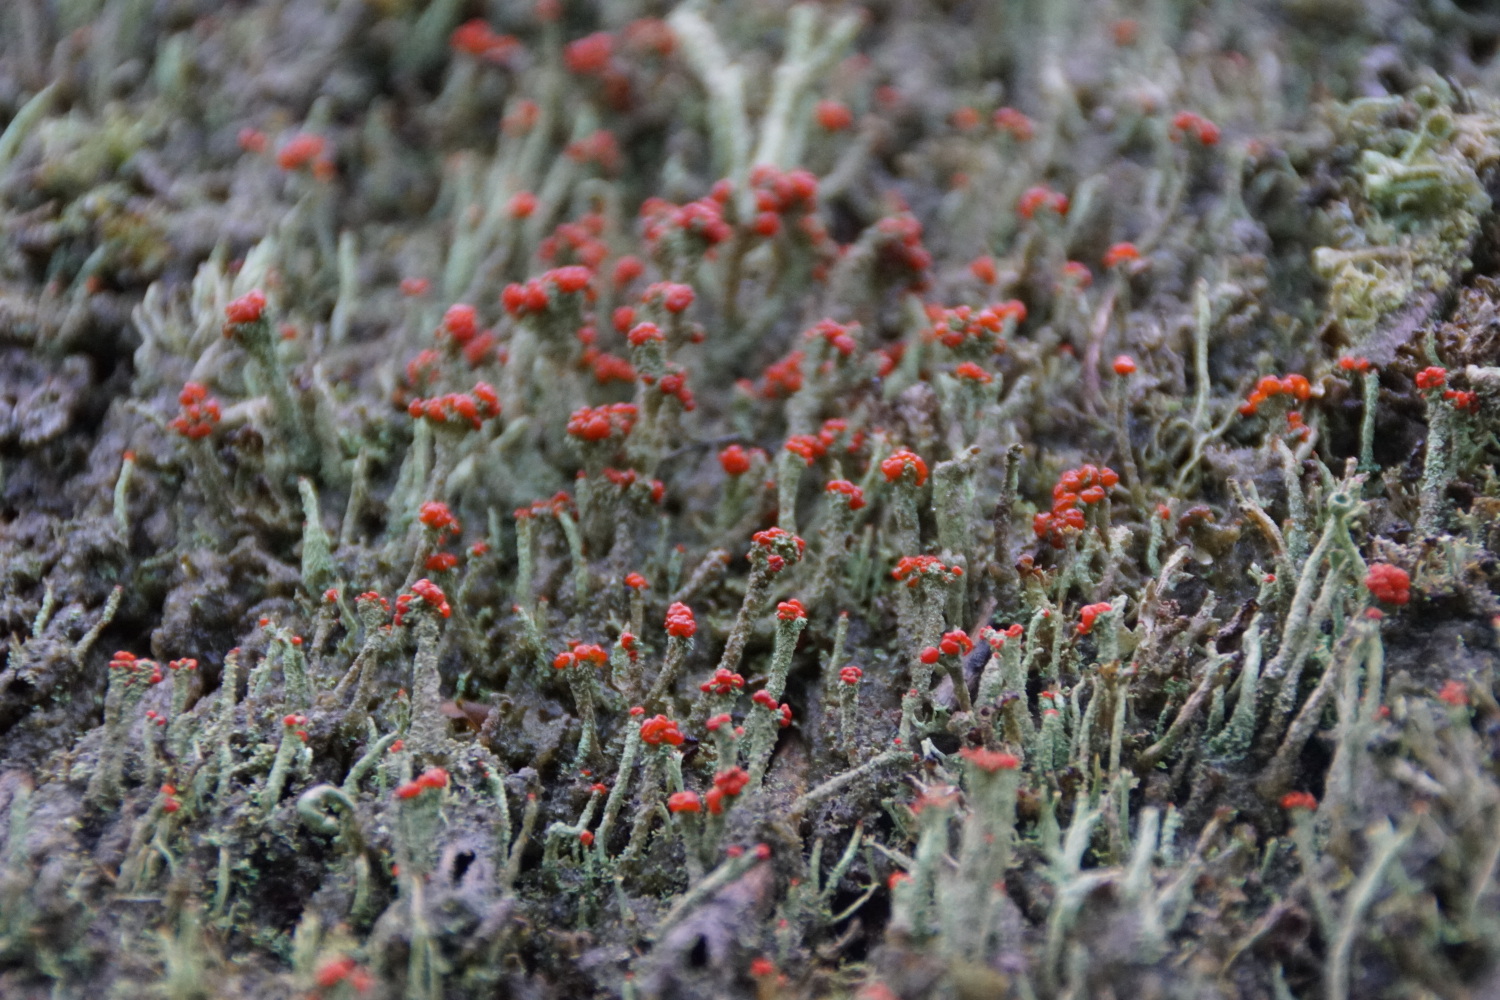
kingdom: Fungi
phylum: Ascomycota
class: Lecanoromycetes
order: Lecanorales
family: Cladoniaceae
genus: Cladonia
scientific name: Cladonia floerkeana
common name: lakrød bægerlav
